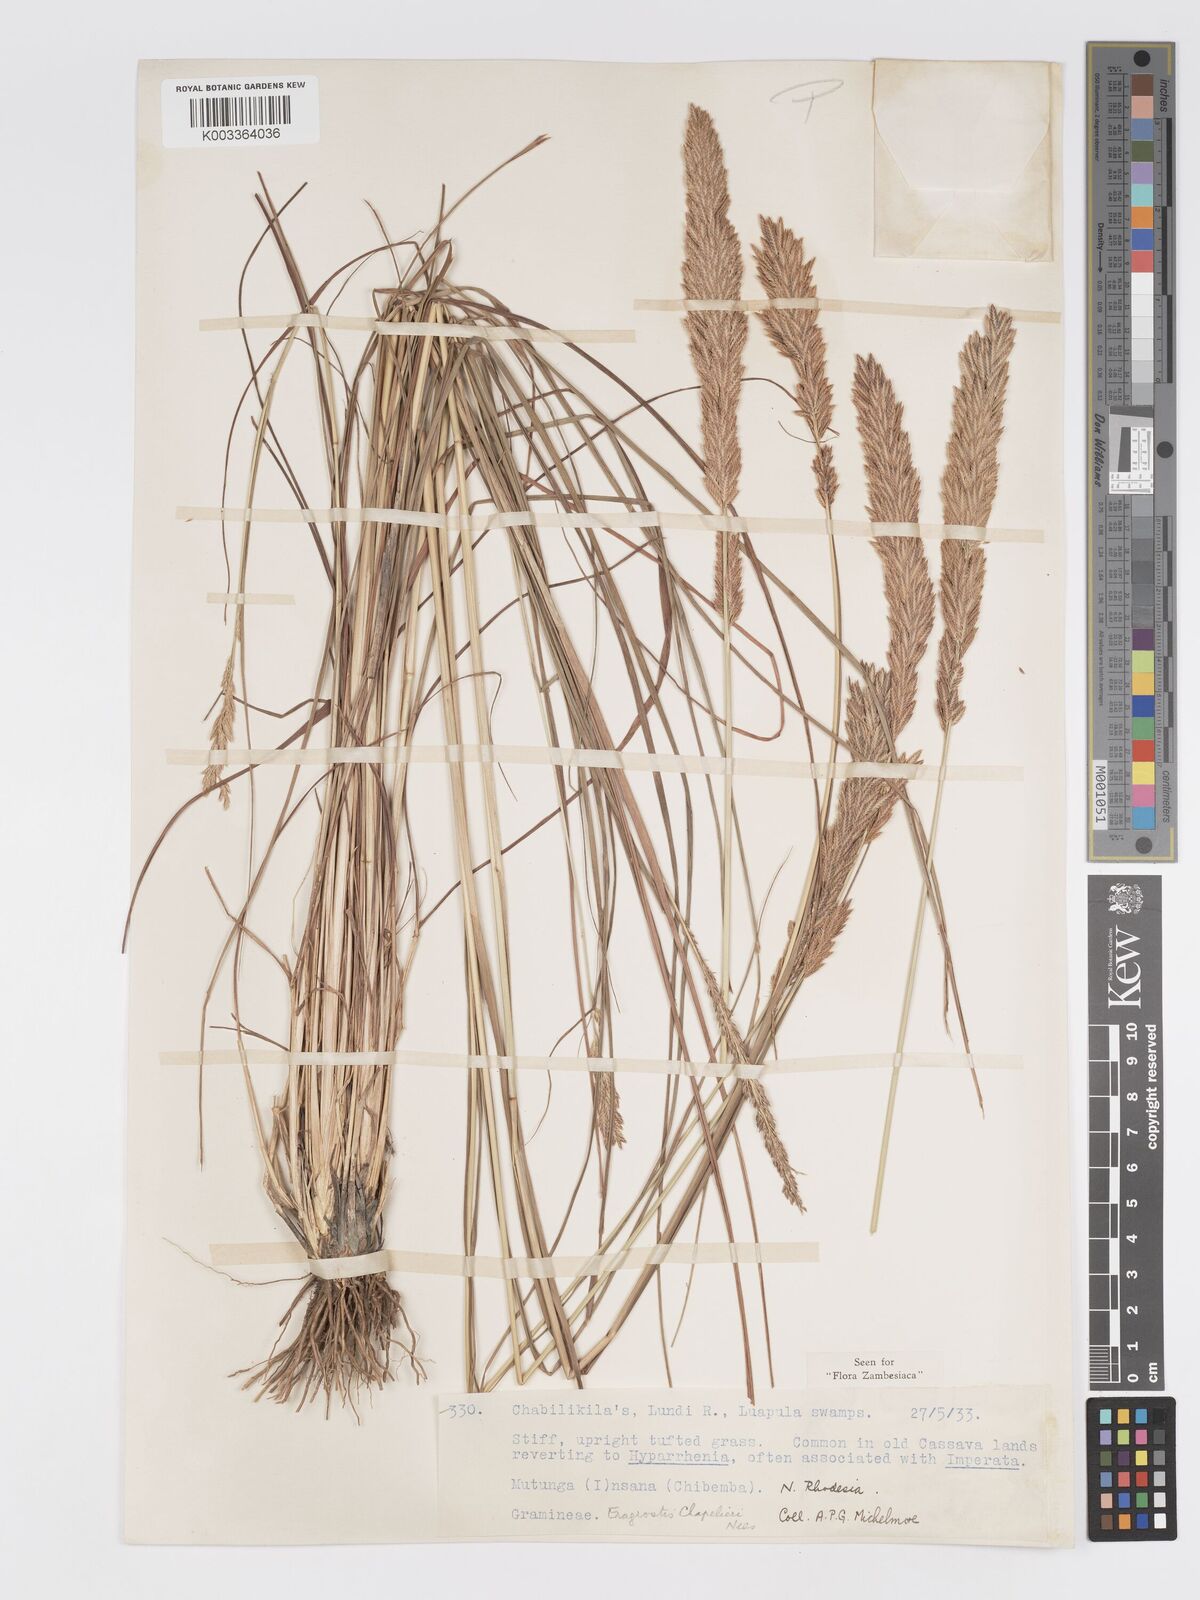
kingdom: Plantae
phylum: Tracheophyta
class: Liliopsida
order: Poales
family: Poaceae
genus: Eragrostis
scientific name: Eragrostis chapelieri
